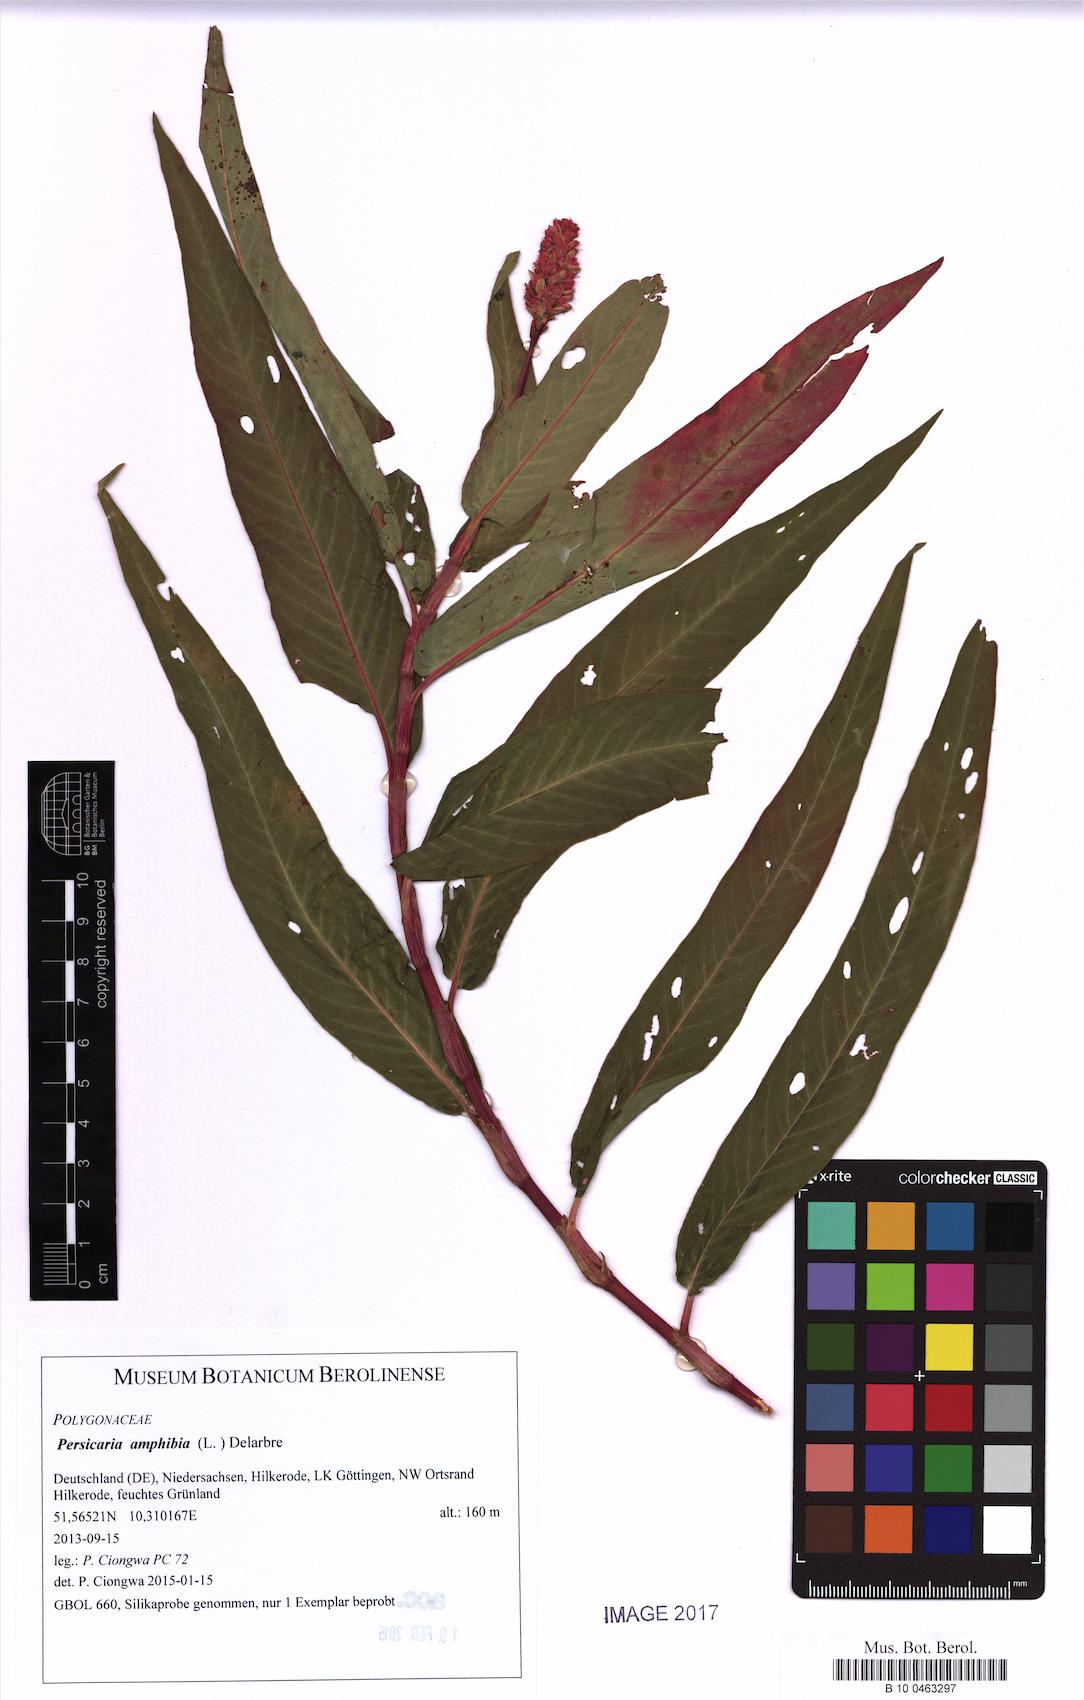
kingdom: Plantae
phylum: Tracheophyta
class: Magnoliopsida
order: Caryophyllales
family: Polygonaceae
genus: Persicaria
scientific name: Persicaria amphibia
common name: Amphibious bistort
